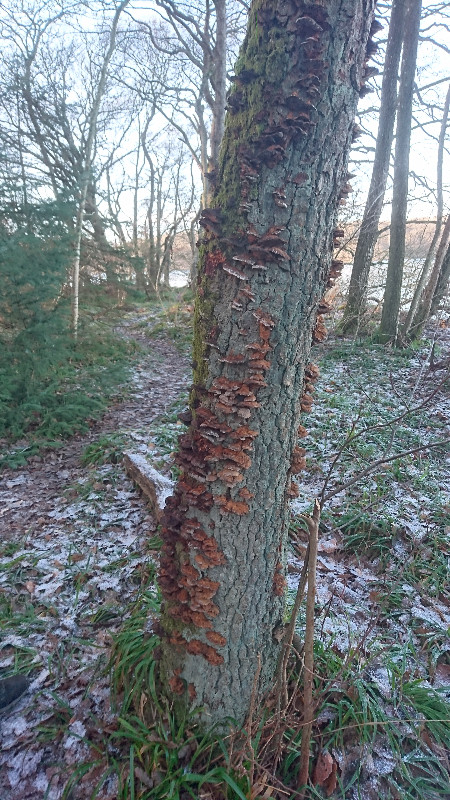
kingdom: Fungi
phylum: Basidiomycota
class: Agaricomycetes
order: Hymenochaetales
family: Hymenochaetaceae
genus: Xanthoporia
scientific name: Xanthoporia radiata
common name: elle-spejlporesvamp
